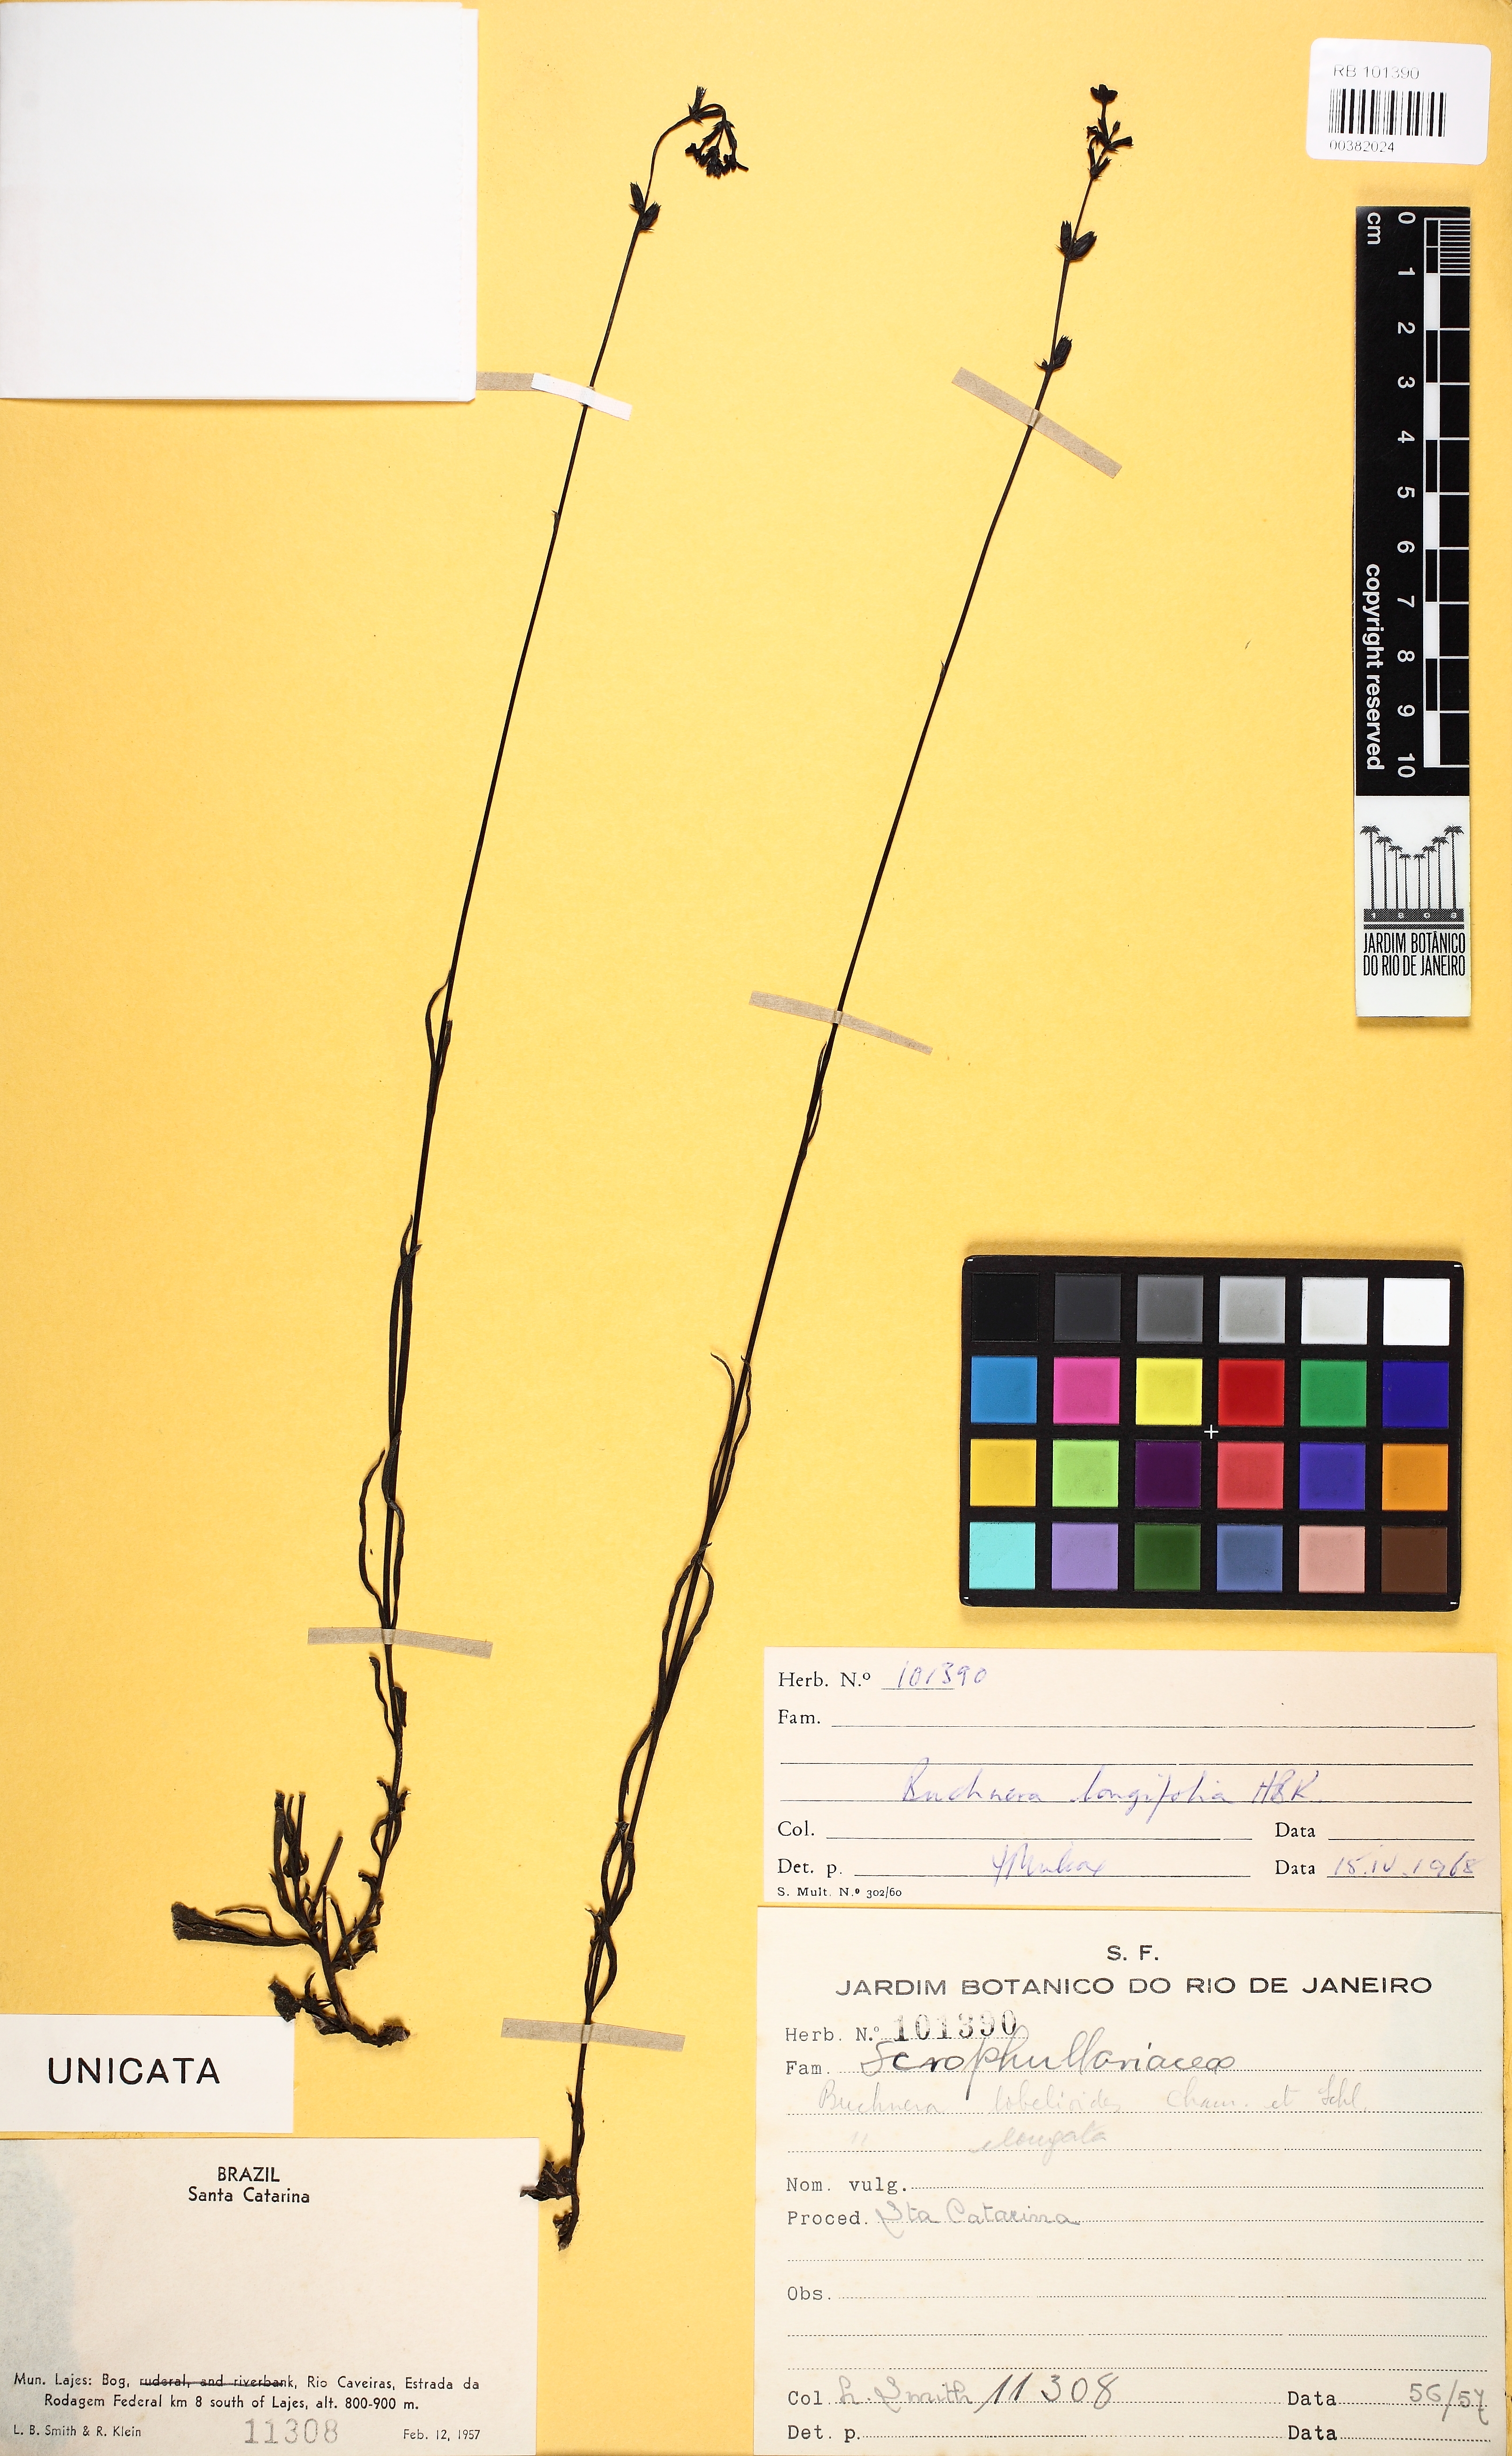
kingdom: Plantae
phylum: Tracheophyta
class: Magnoliopsida
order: Lamiales
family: Orobanchaceae
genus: Buchnera
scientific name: Buchnera longifolia
